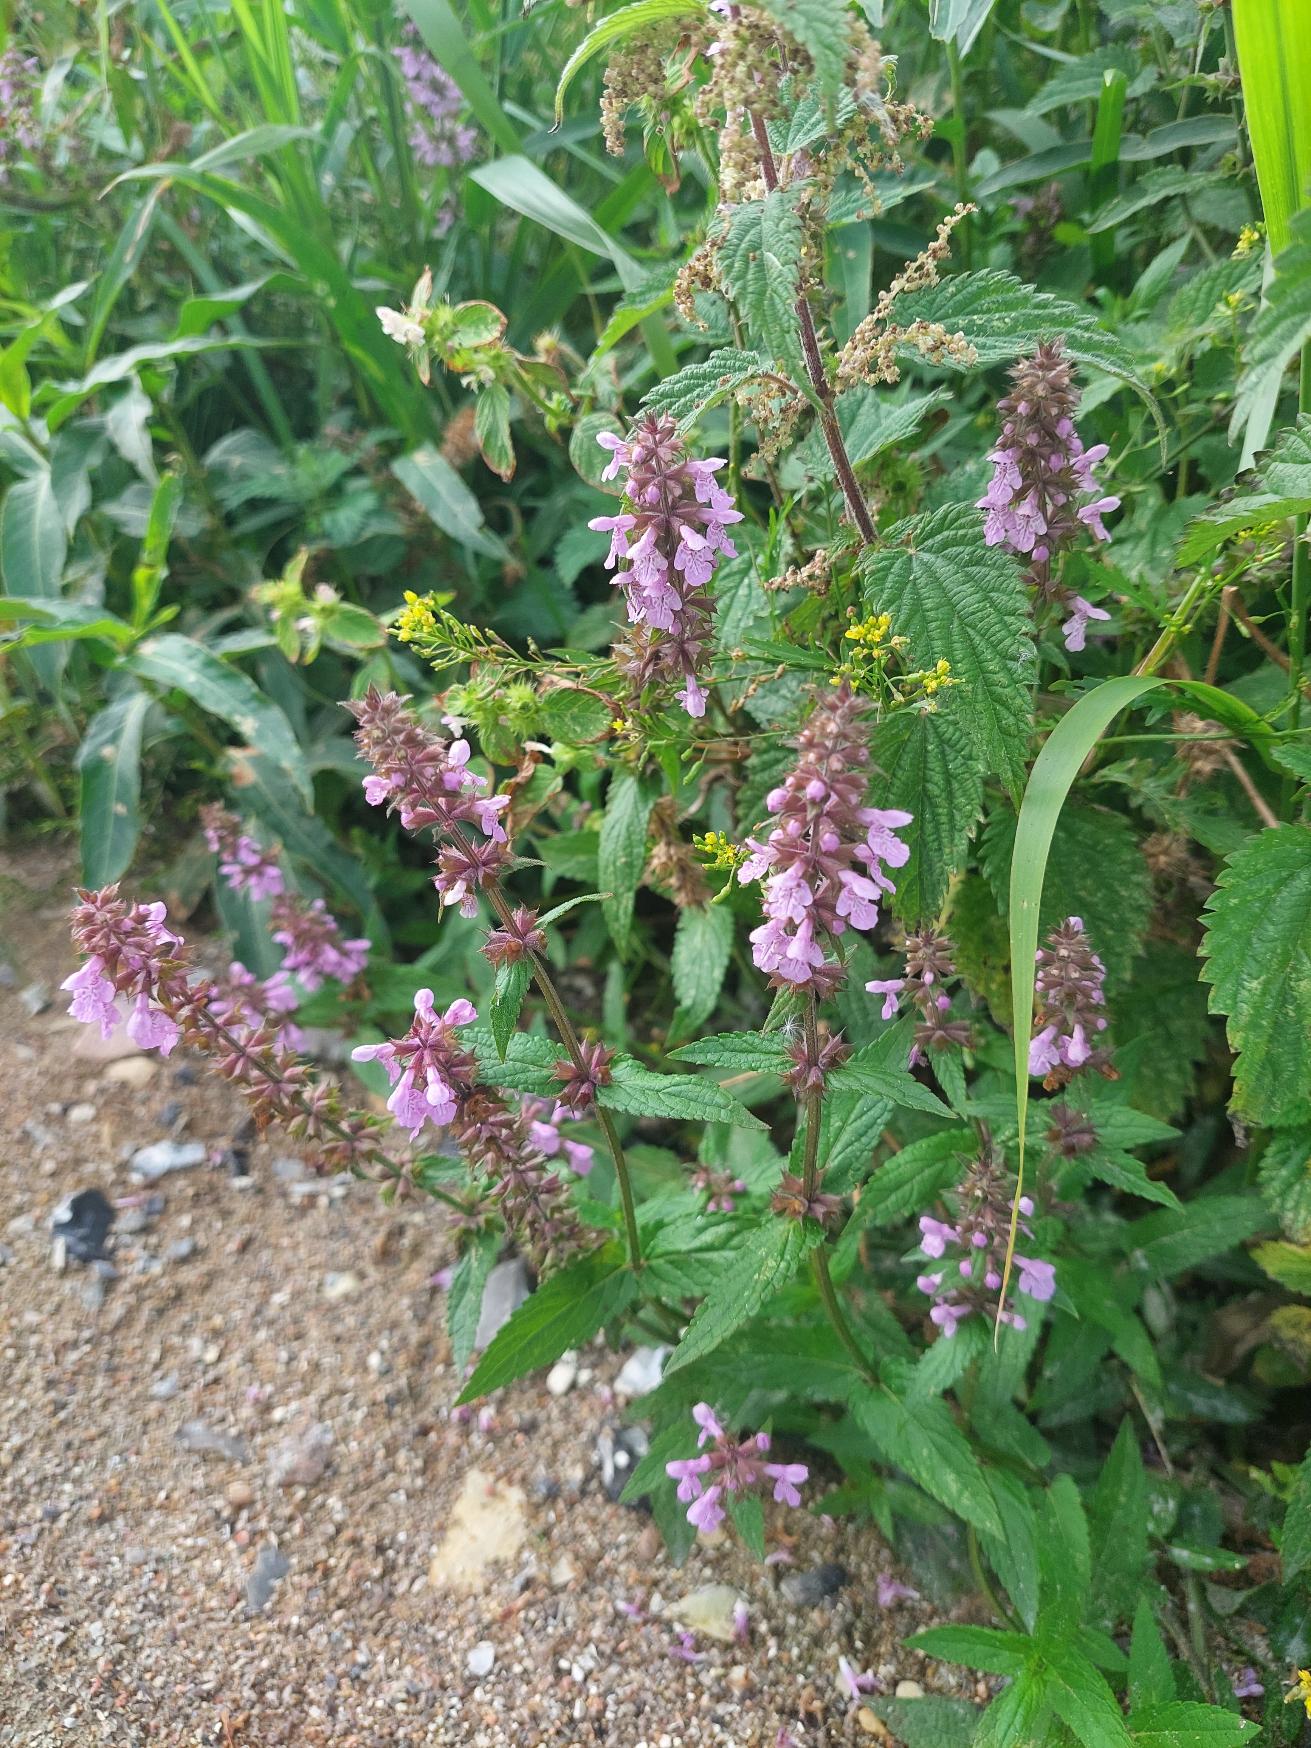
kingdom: Plantae
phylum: Tracheophyta
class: Magnoliopsida
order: Lamiales
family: Lamiaceae
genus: Stachys
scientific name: Stachys palustris
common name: Kær-galtetand
